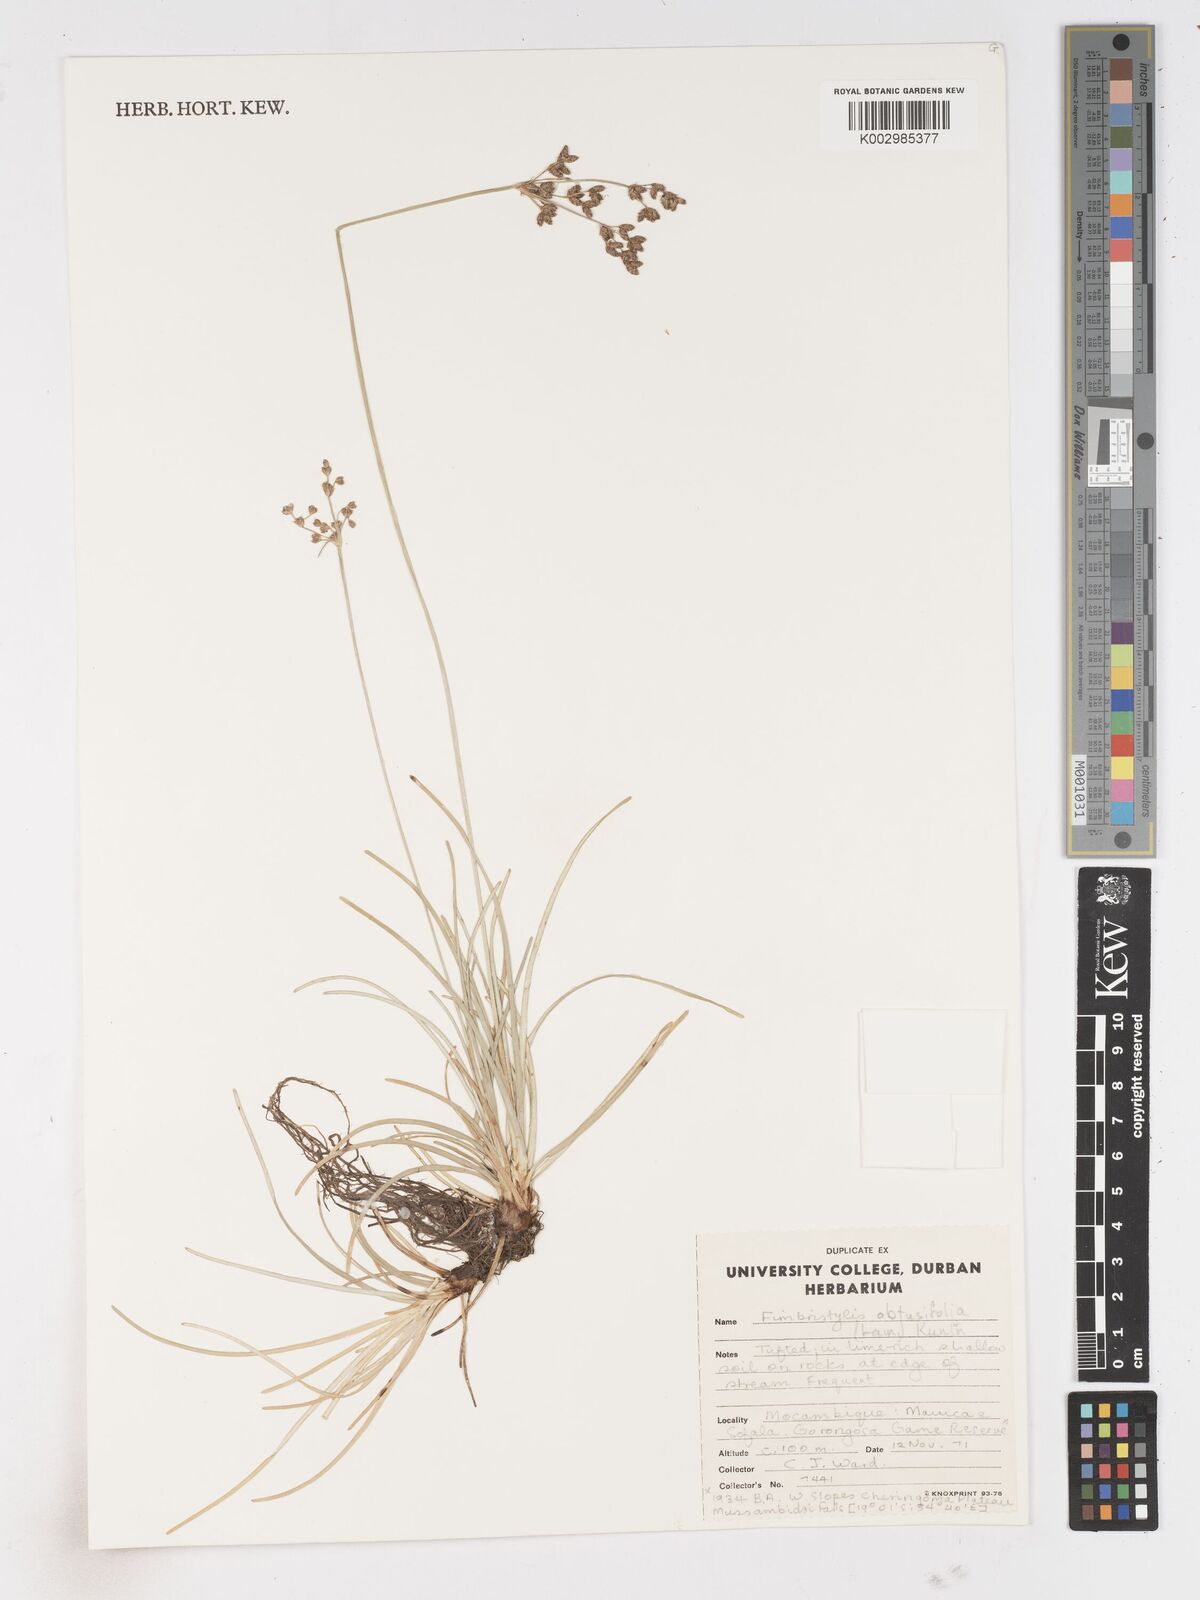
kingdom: Plantae
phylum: Tracheophyta
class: Liliopsida
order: Poales
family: Cyperaceae
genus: Fimbristylis
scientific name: Fimbristylis cymosa
